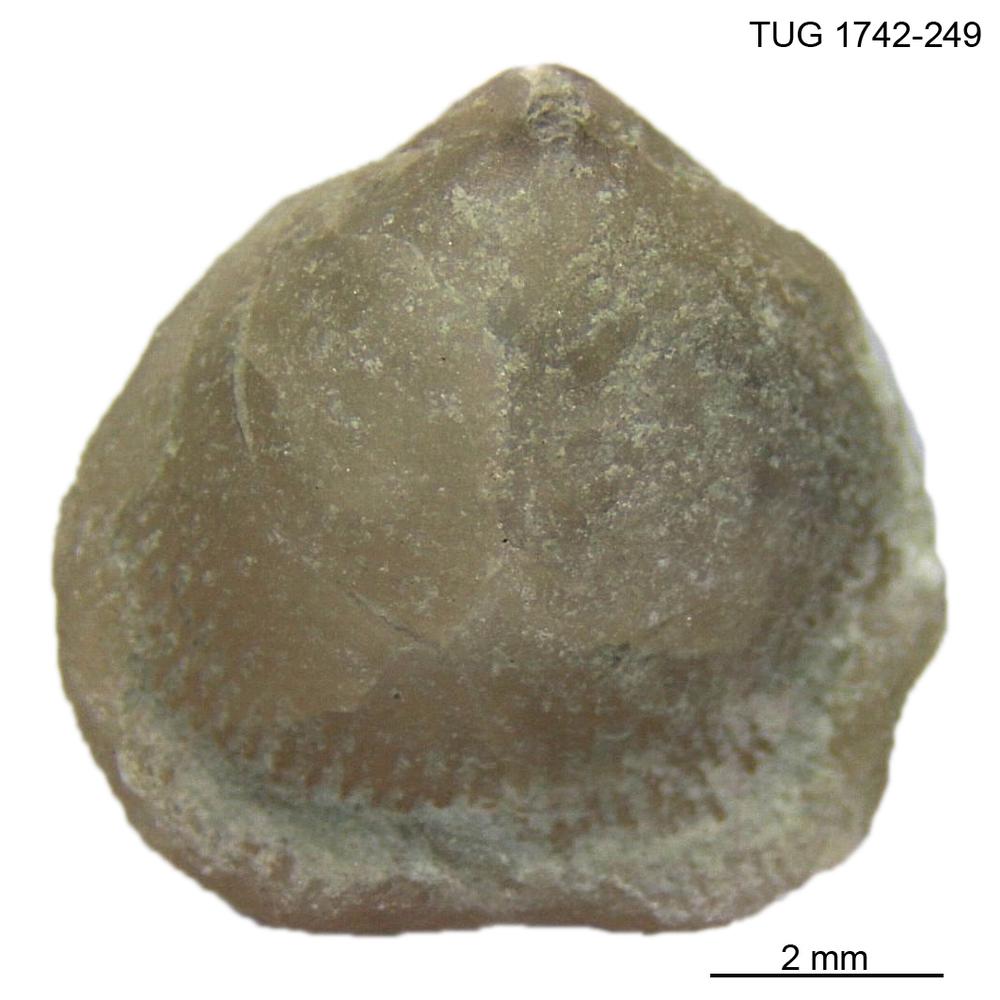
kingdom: Animalia
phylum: Brachiopoda
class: Rhynchonellata
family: Anazygidae
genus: Pentlandella
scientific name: Pentlandella
